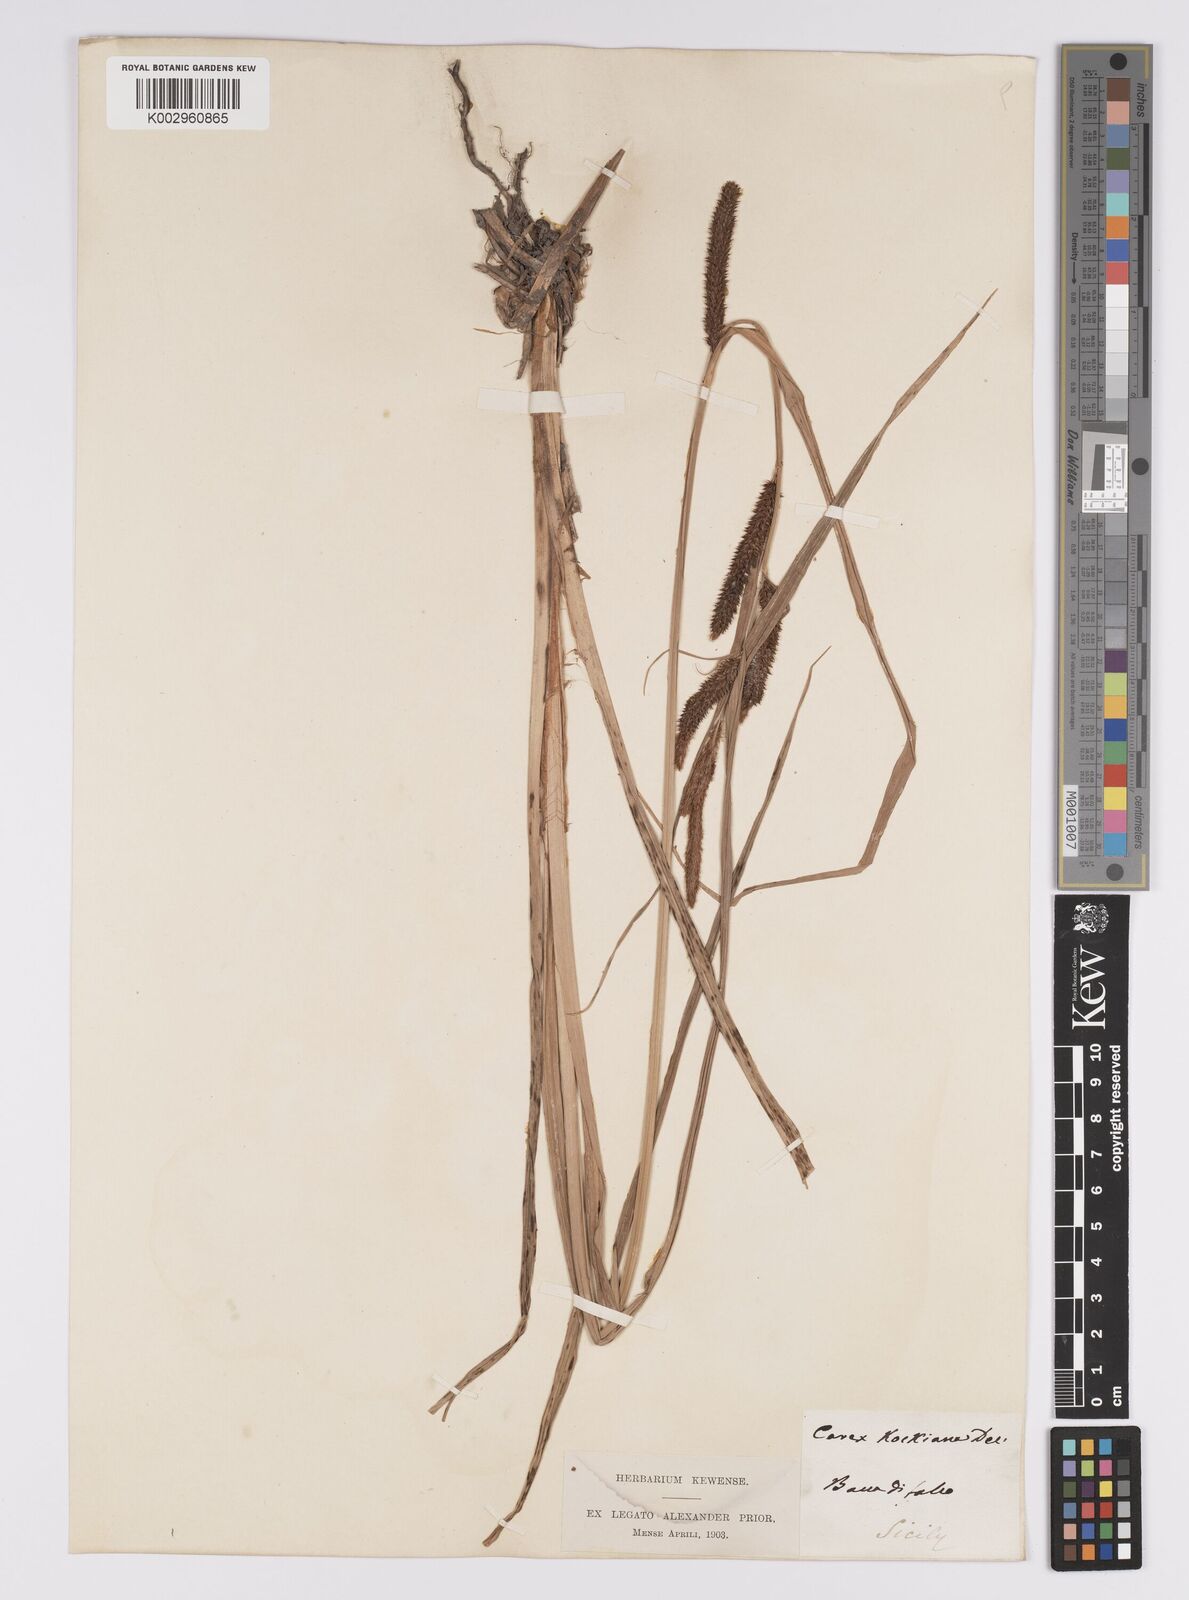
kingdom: Plantae
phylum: Tracheophyta
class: Liliopsida
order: Poales
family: Cyperaceae
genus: Carex
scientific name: Carex acutiformis
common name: Lesser pond-sedge
